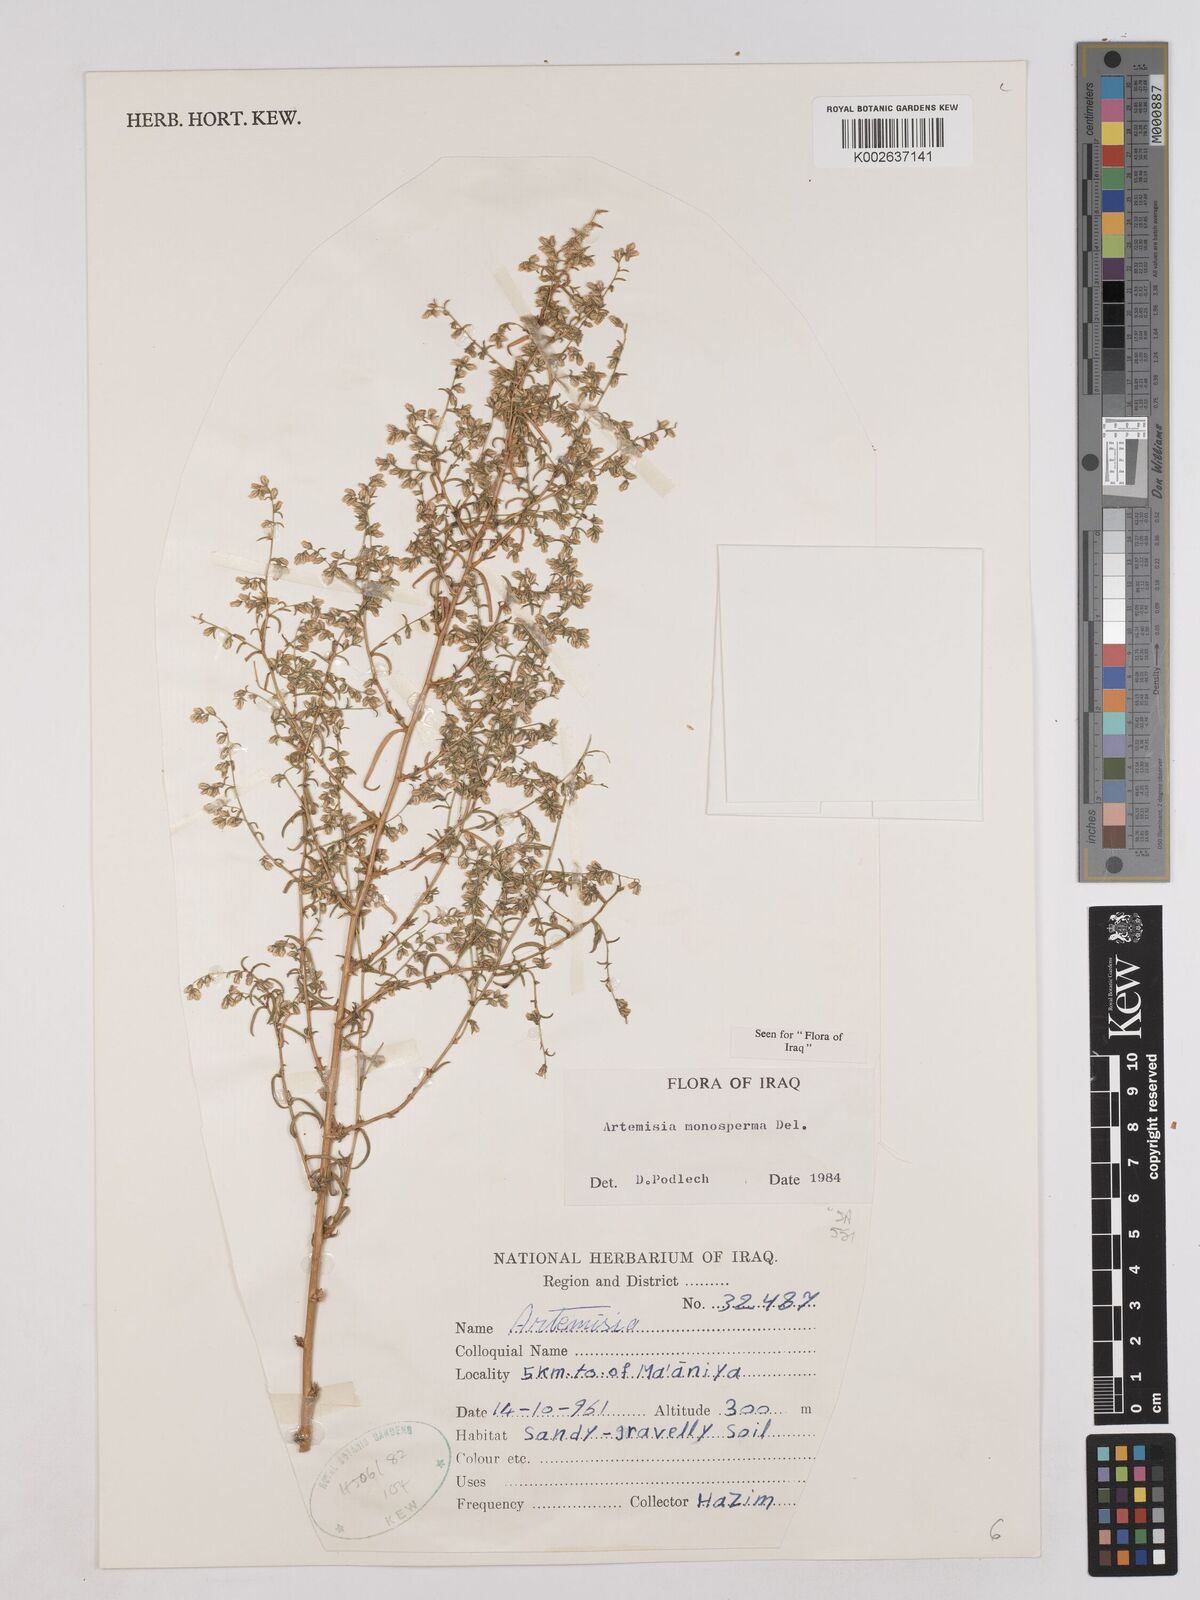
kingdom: Plantae
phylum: Tracheophyta
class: Magnoliopsida
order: Asterales
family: Asteraceae
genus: Artemisia
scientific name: Artemisia monosperma
